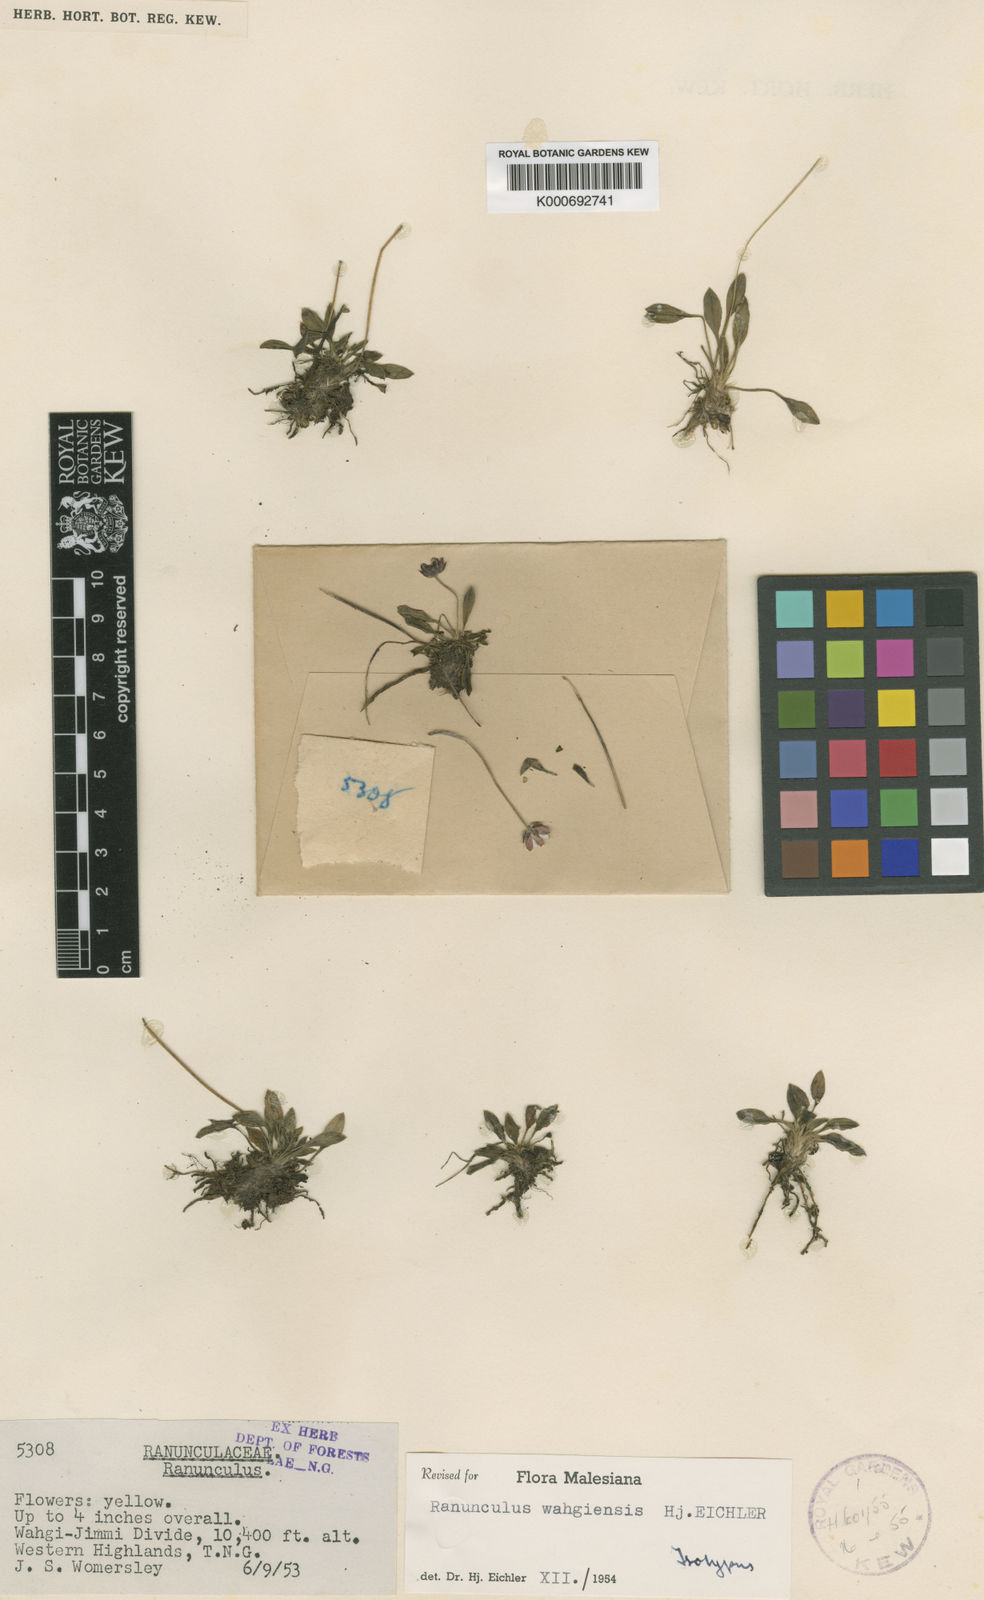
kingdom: Plantae
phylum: Tracheophyta
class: Magnoliopsida
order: Ranunculales
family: Ranunculaceae
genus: Ranunculus
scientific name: Ranunculus wahgiensis
